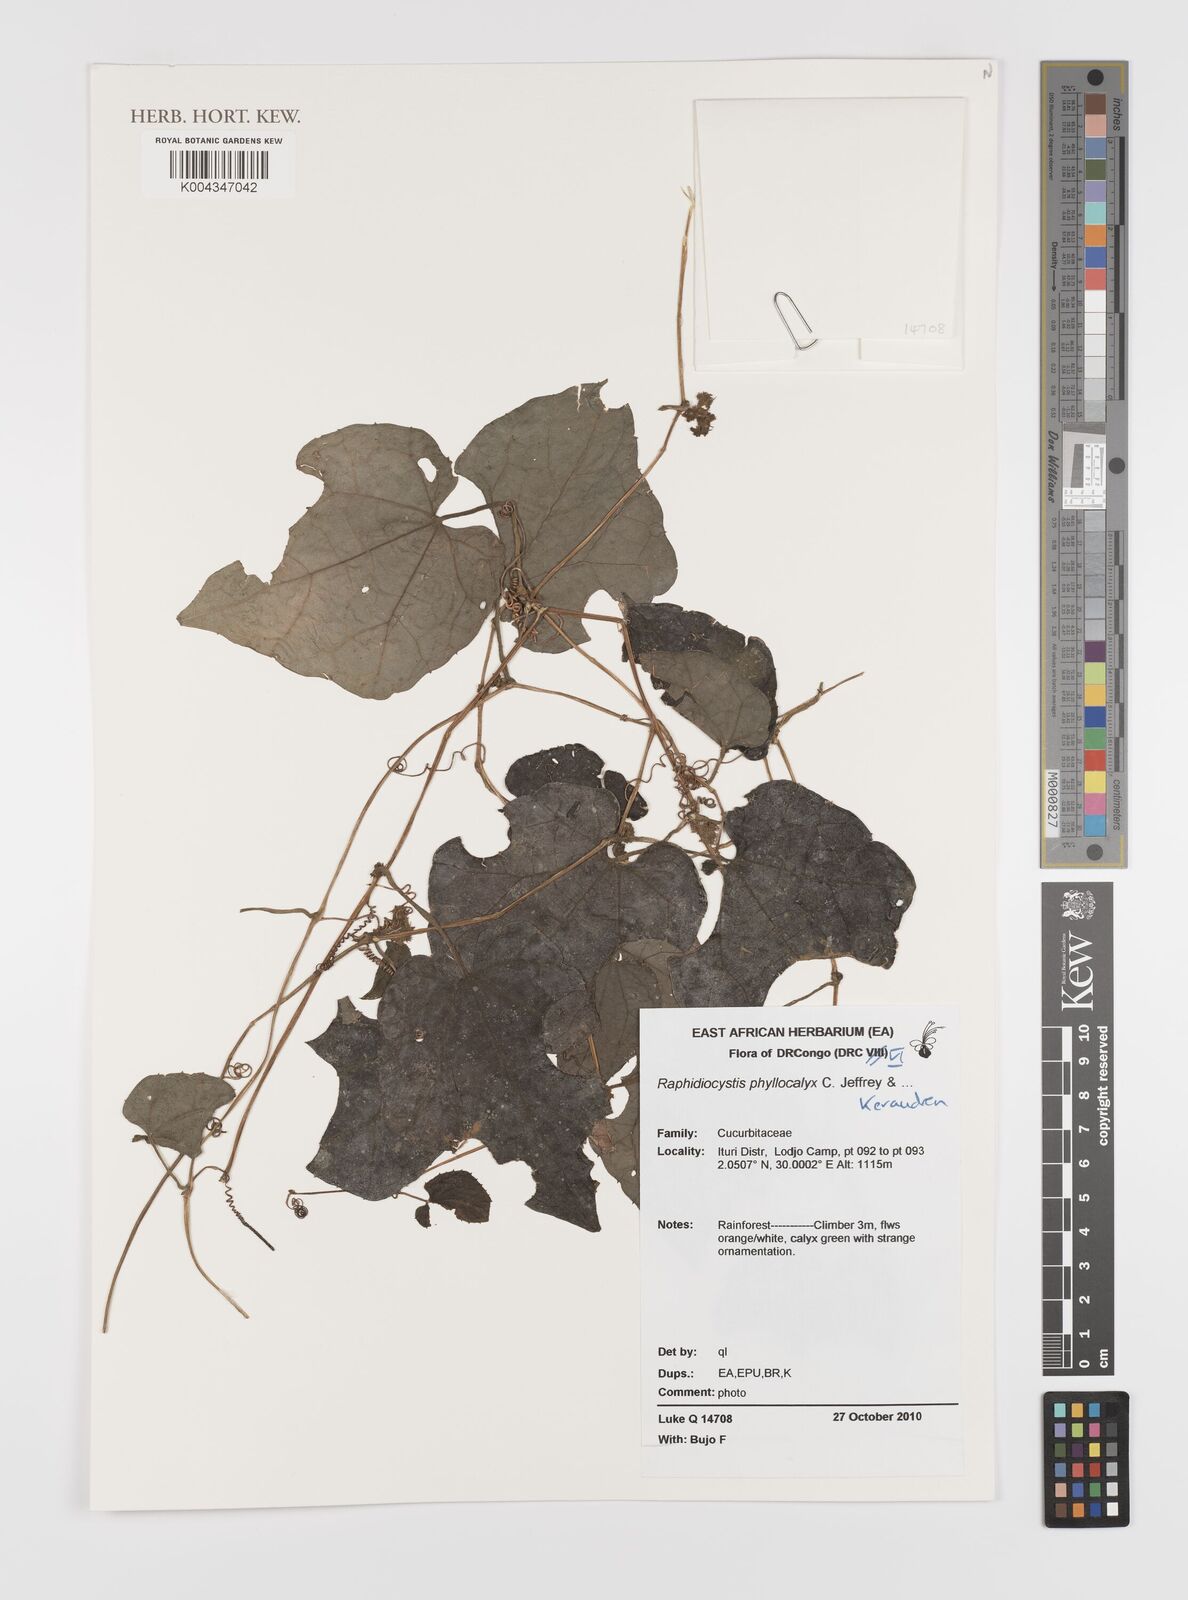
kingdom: Plantae
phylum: Tracheophyta
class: Magnoliopsida
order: Cucurbitales
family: Cucurbitaceae
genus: Raphidiocystis
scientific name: Raphidiocystis phyllocalyx
